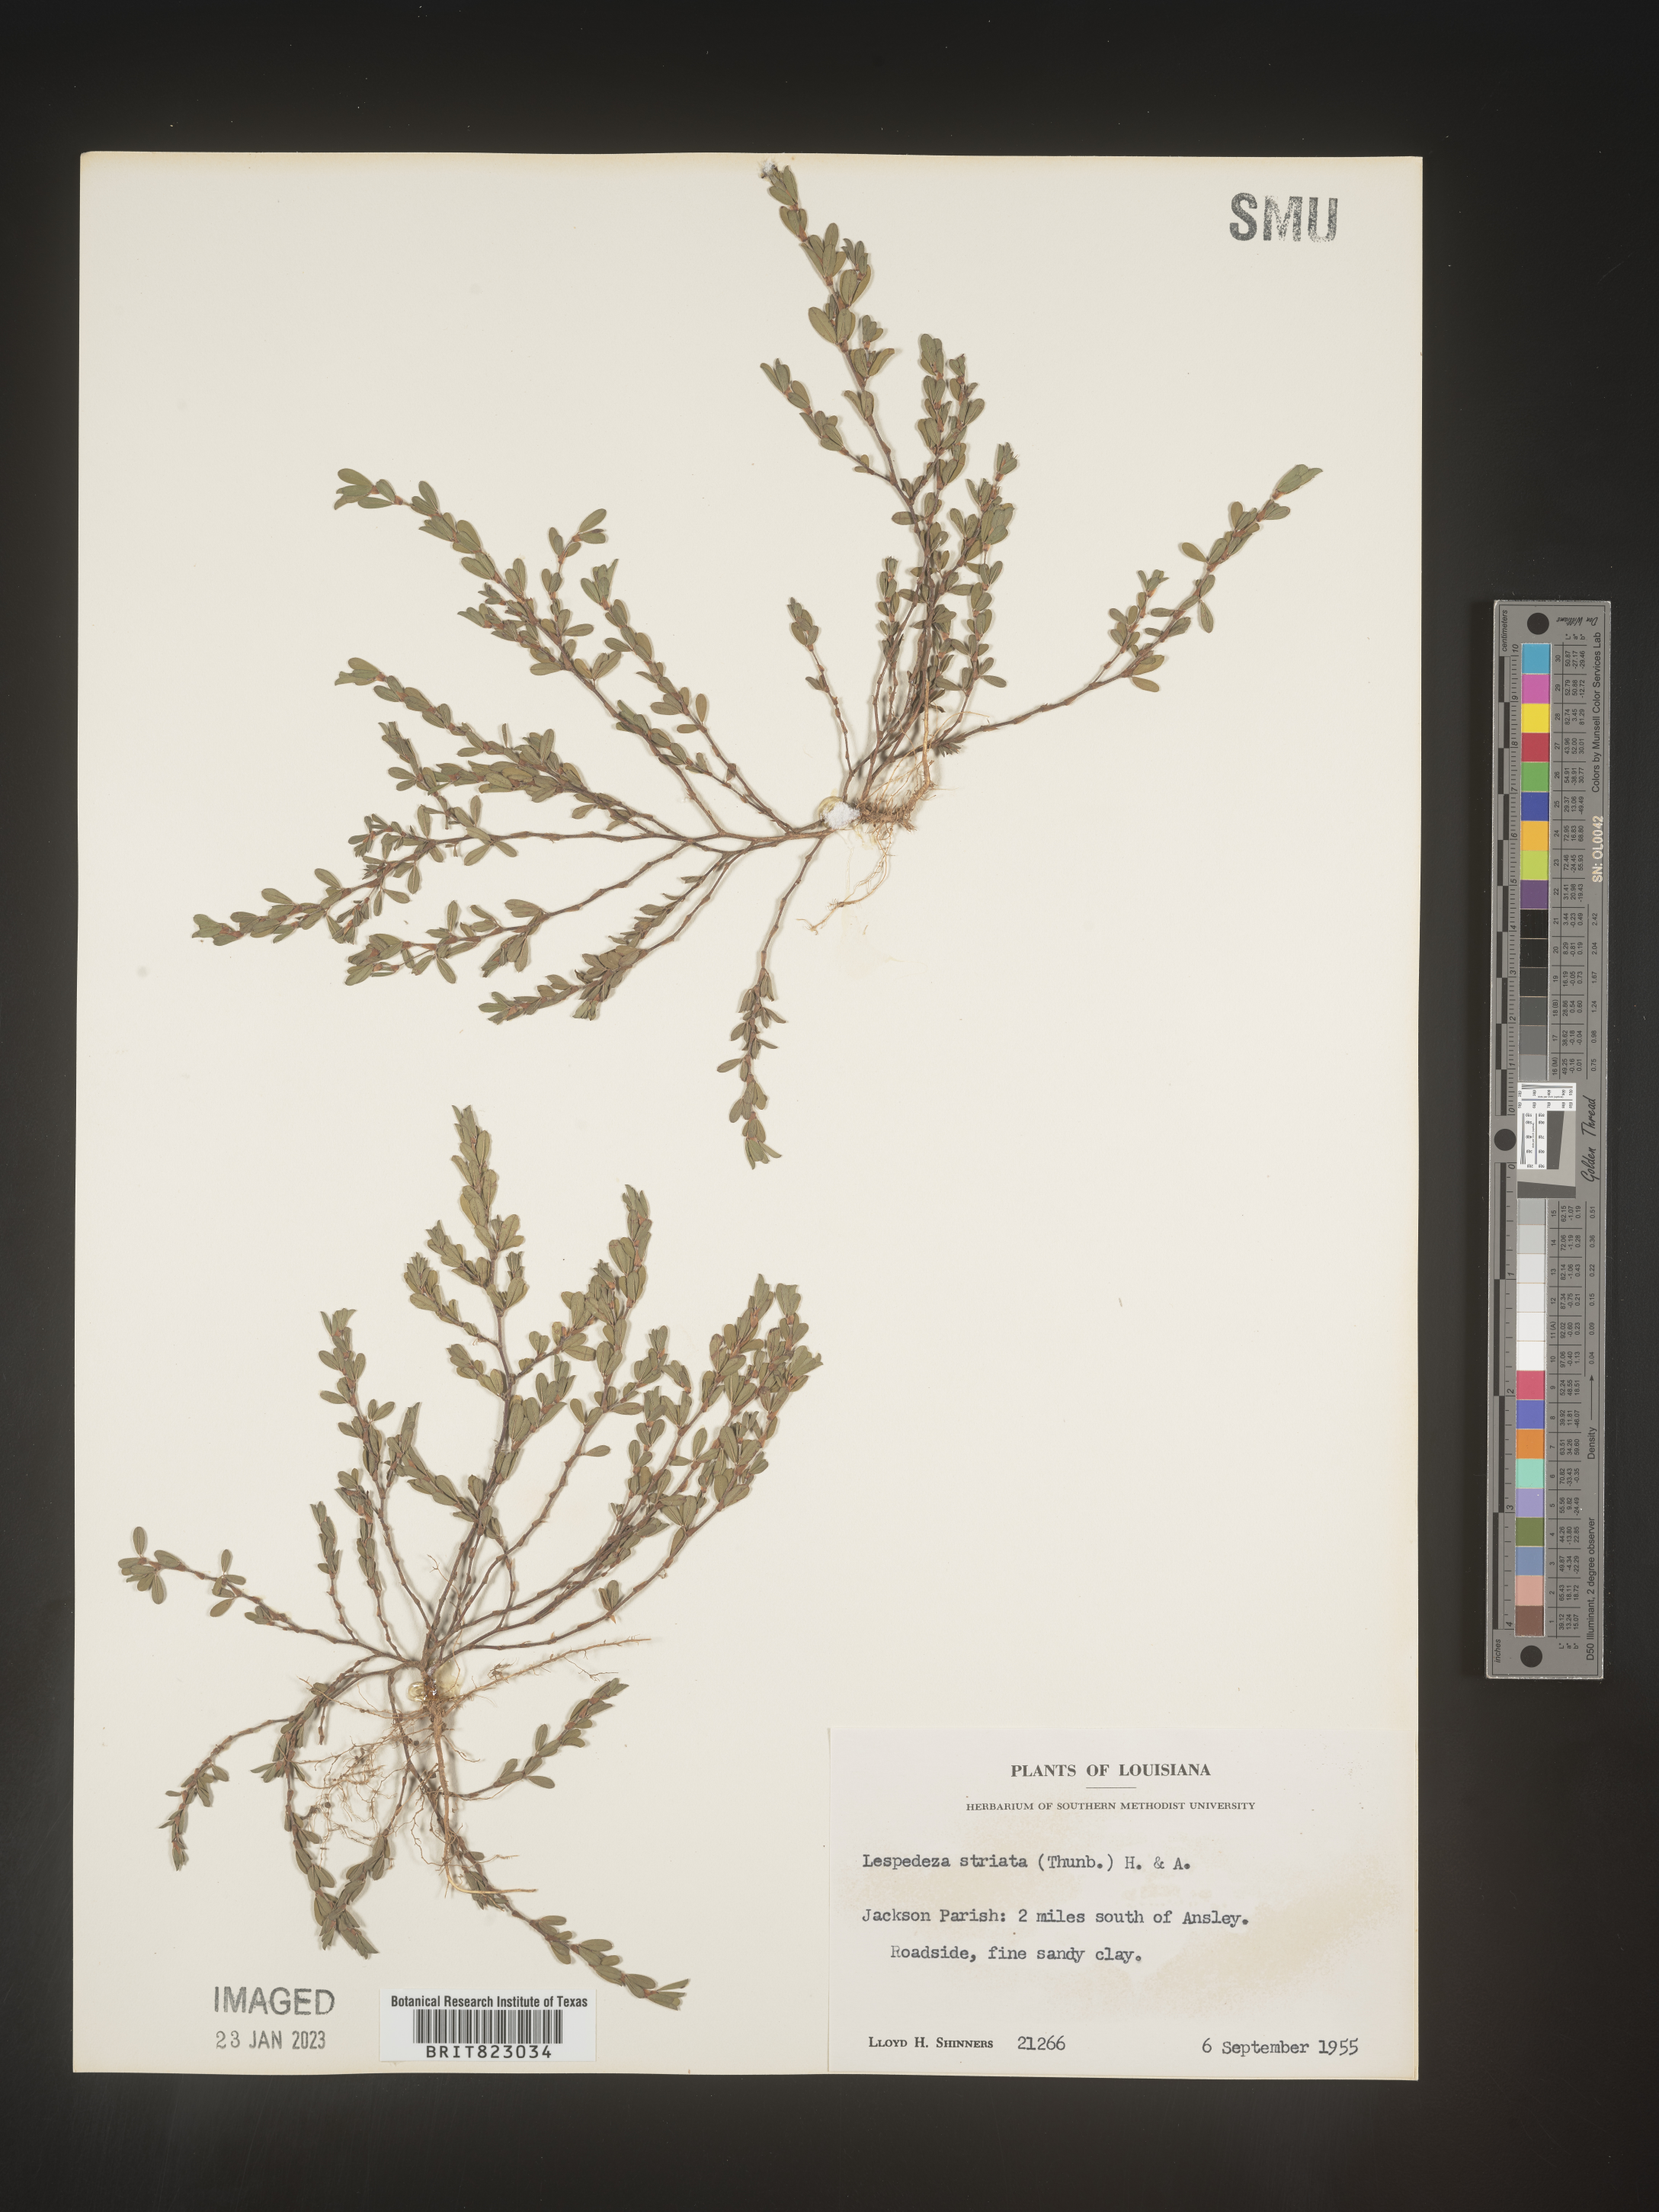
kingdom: Plantae
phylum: Tracheophyta
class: Magnoliopsida
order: Fabales
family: Fabaceae
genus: Kummerowia
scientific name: Kummerowia striata
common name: Japanese clover
